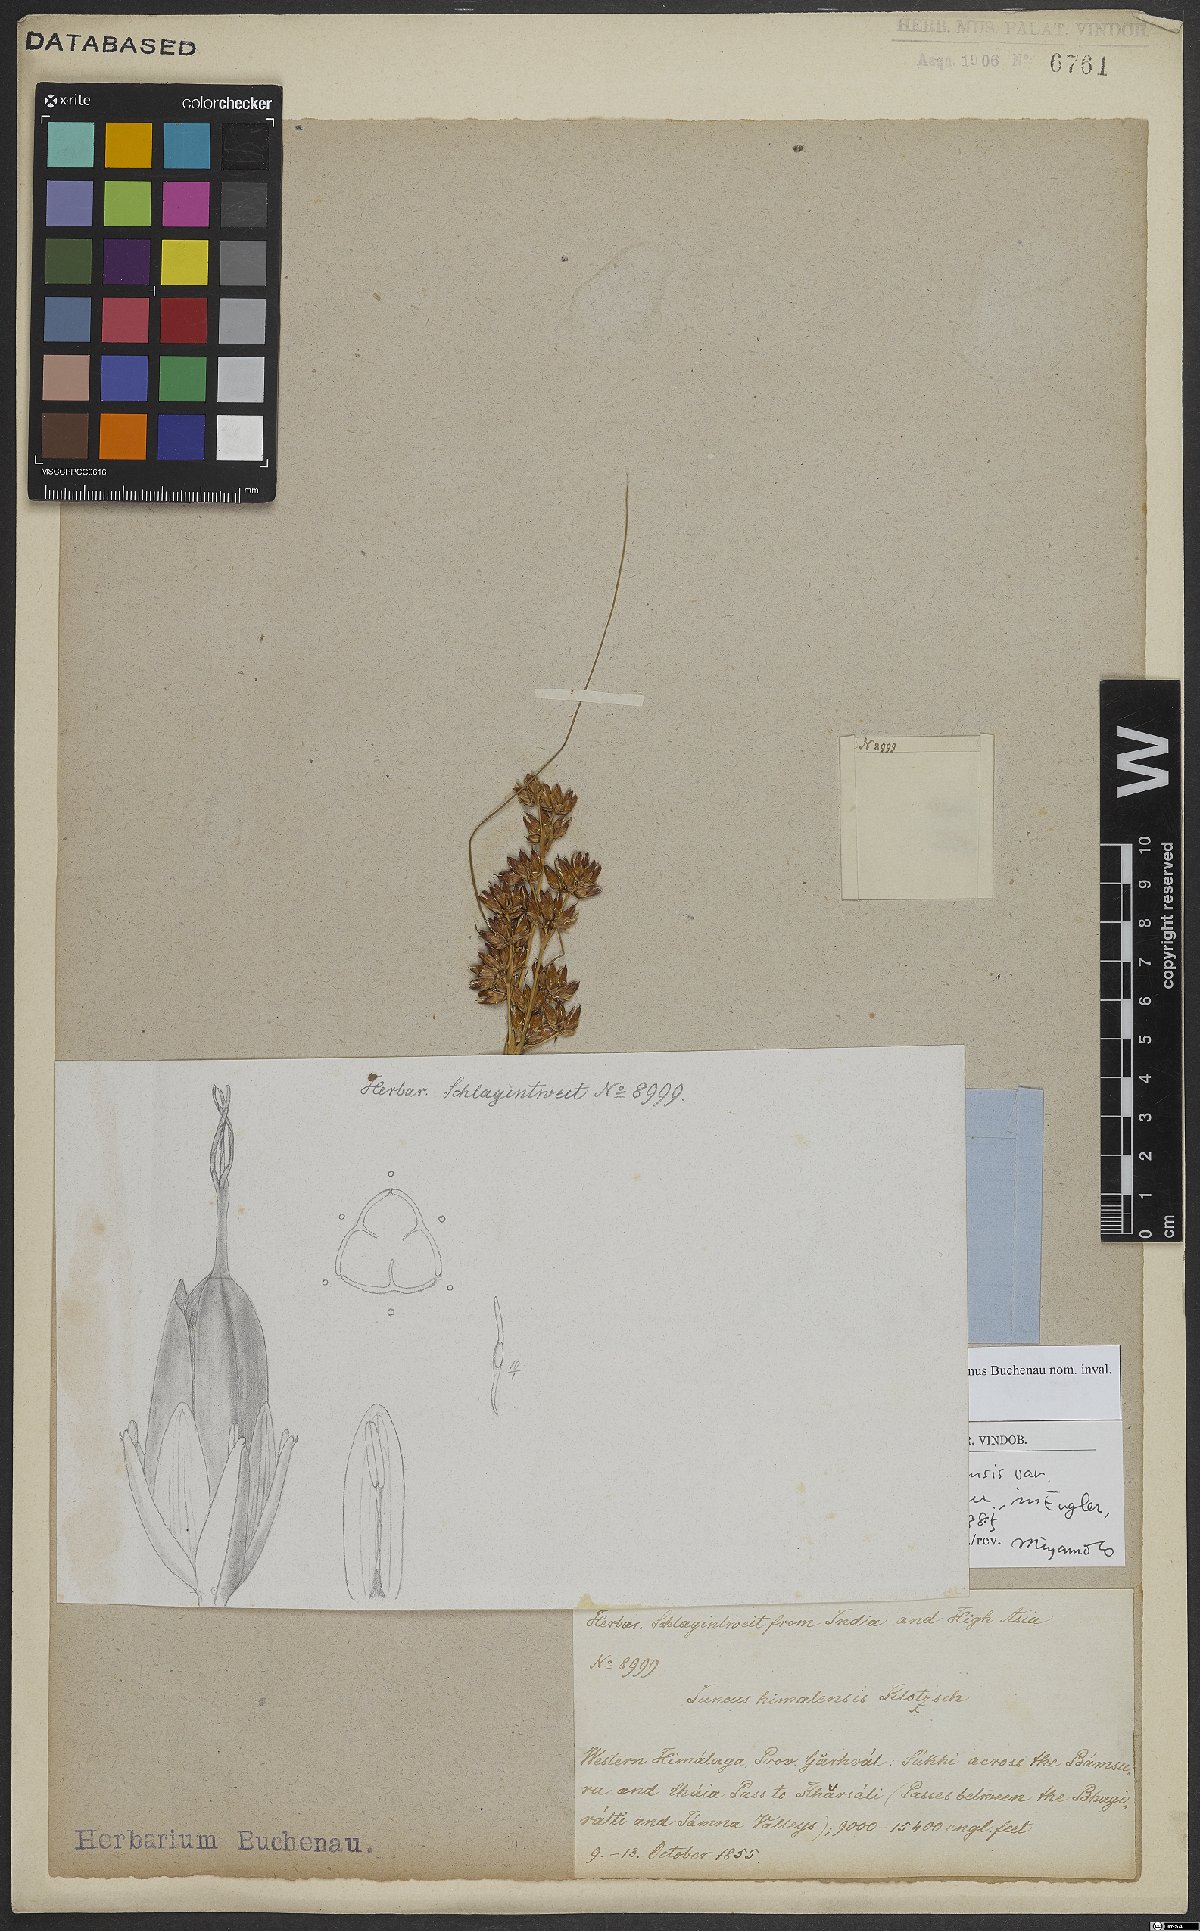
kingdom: Plantae
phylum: Tracheophyta
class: Liliopsida
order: Poales
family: Juncaceae
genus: Juncus
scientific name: Juncus himalensis
